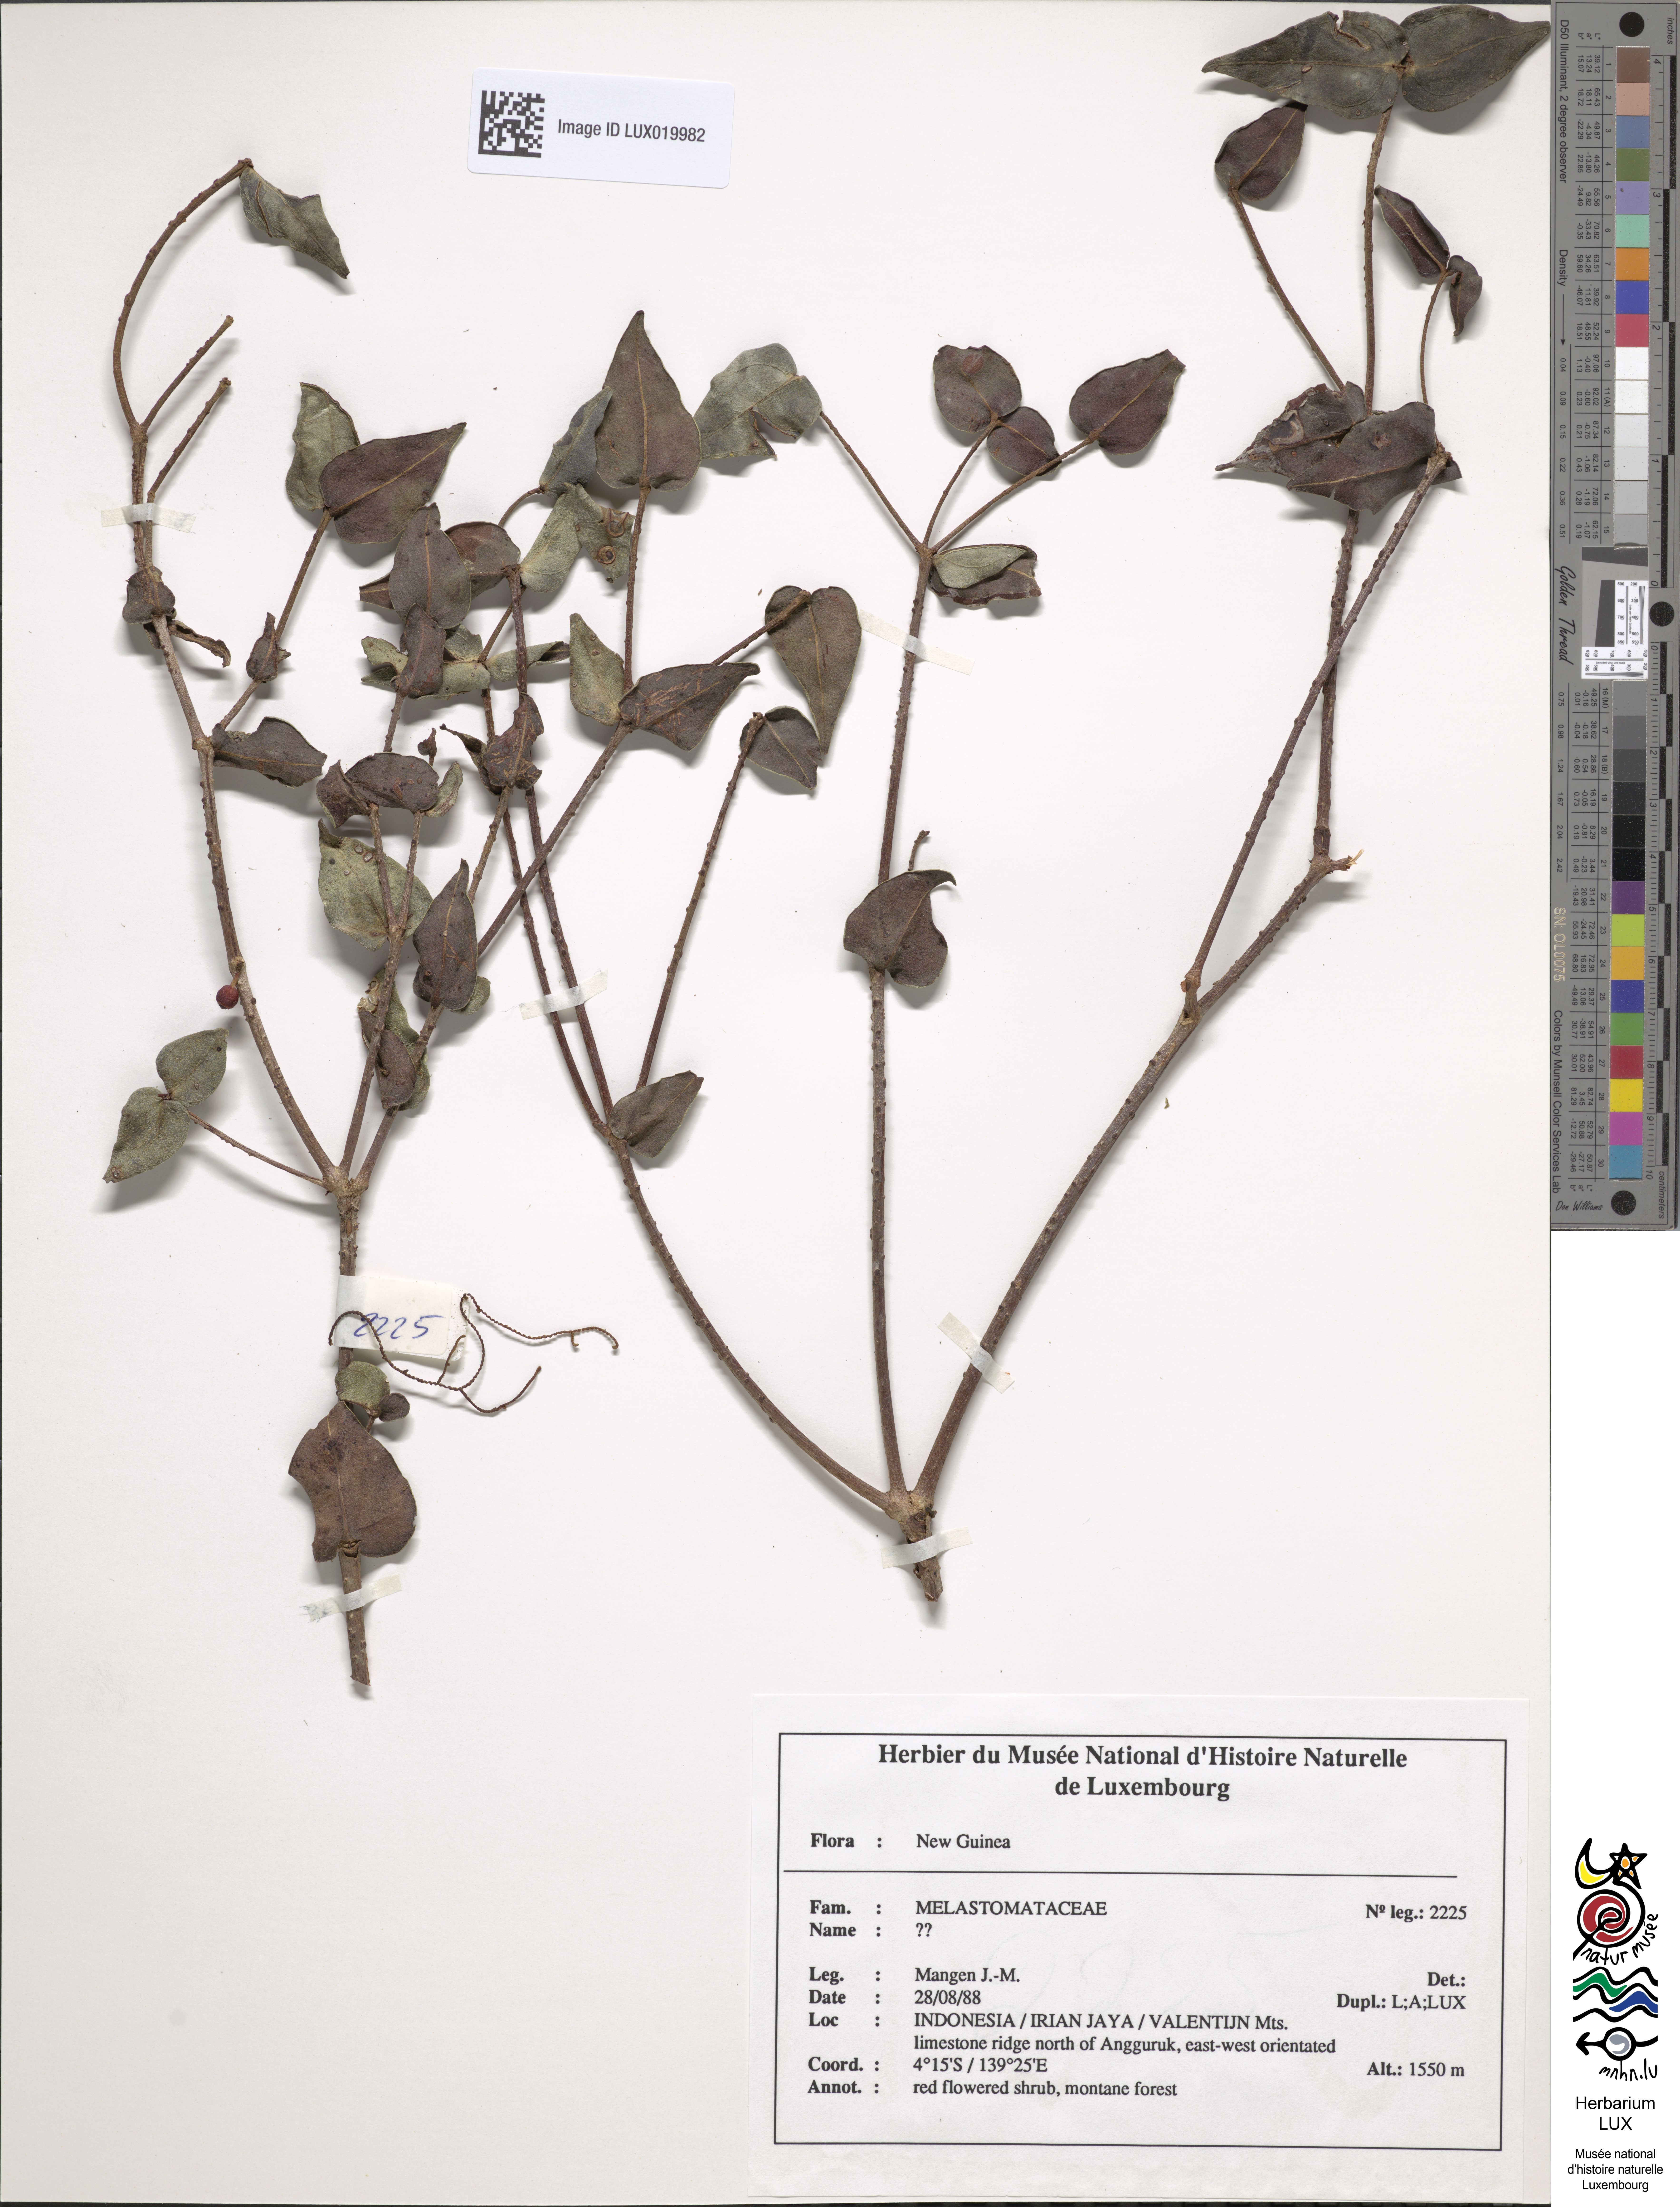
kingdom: Plantae
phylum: Tracheophyta
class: Magnoliopsida
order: Myrtales
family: Melastomataceae
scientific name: Melastomataceae
